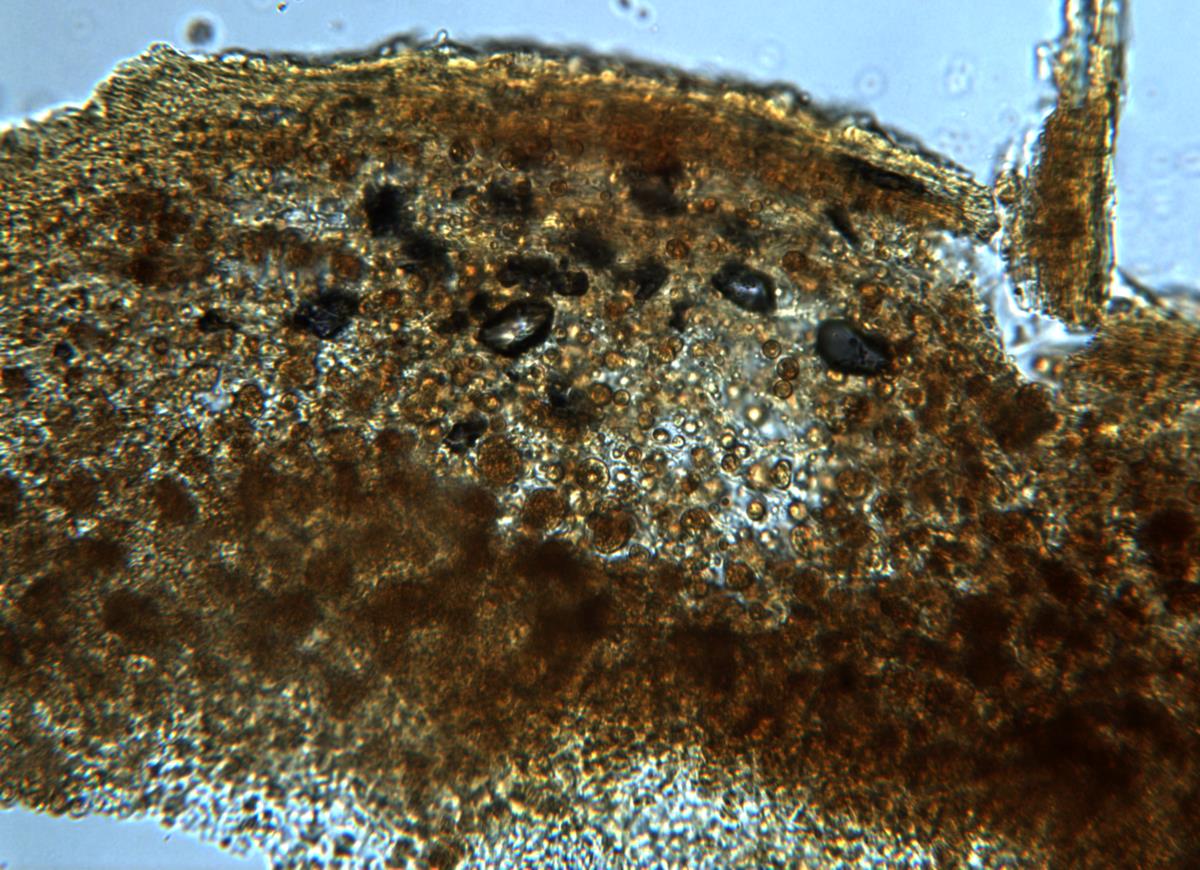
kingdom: Fungi
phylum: Basidiomycota
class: Agaricomycetes
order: Boletales
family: Rhizopogonaceae
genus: Rhizopogon
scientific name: Rhizopogon
